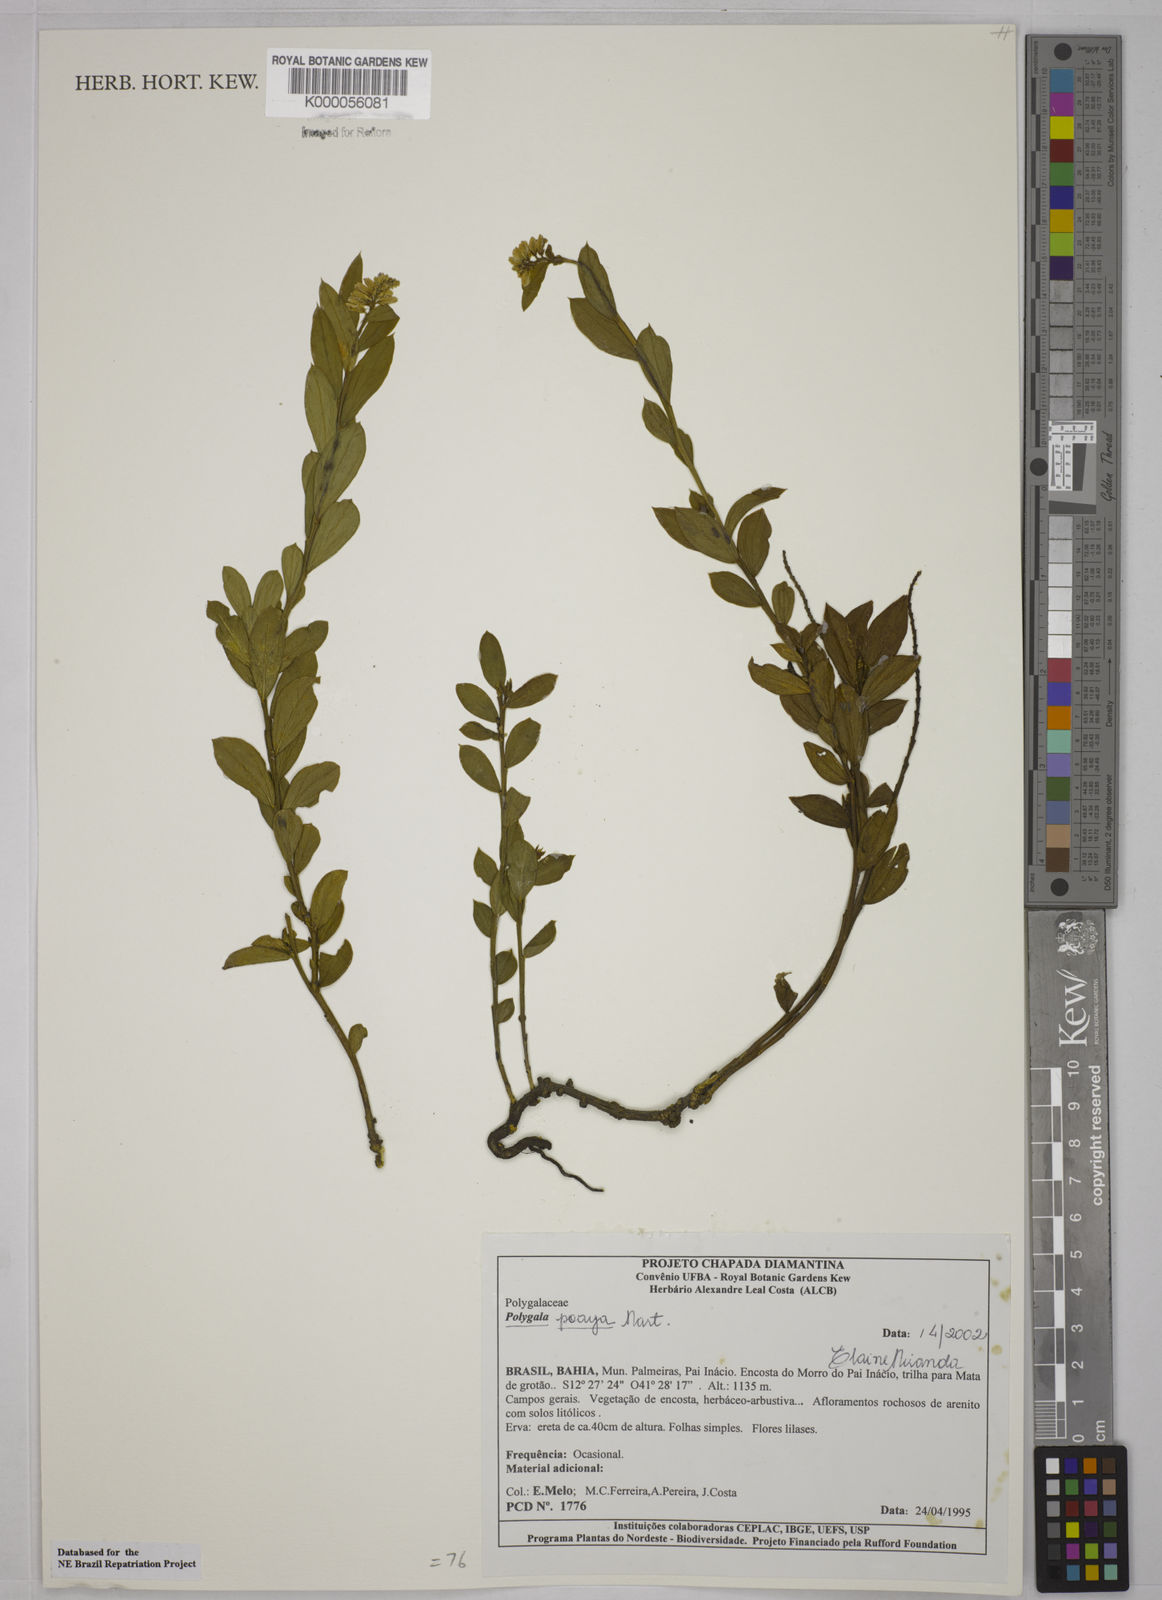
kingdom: Plantae
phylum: Tracheophyta
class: Magnoliopsida
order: Fabales
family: Polygalaceae
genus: Polygala
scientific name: Polygala poaya
